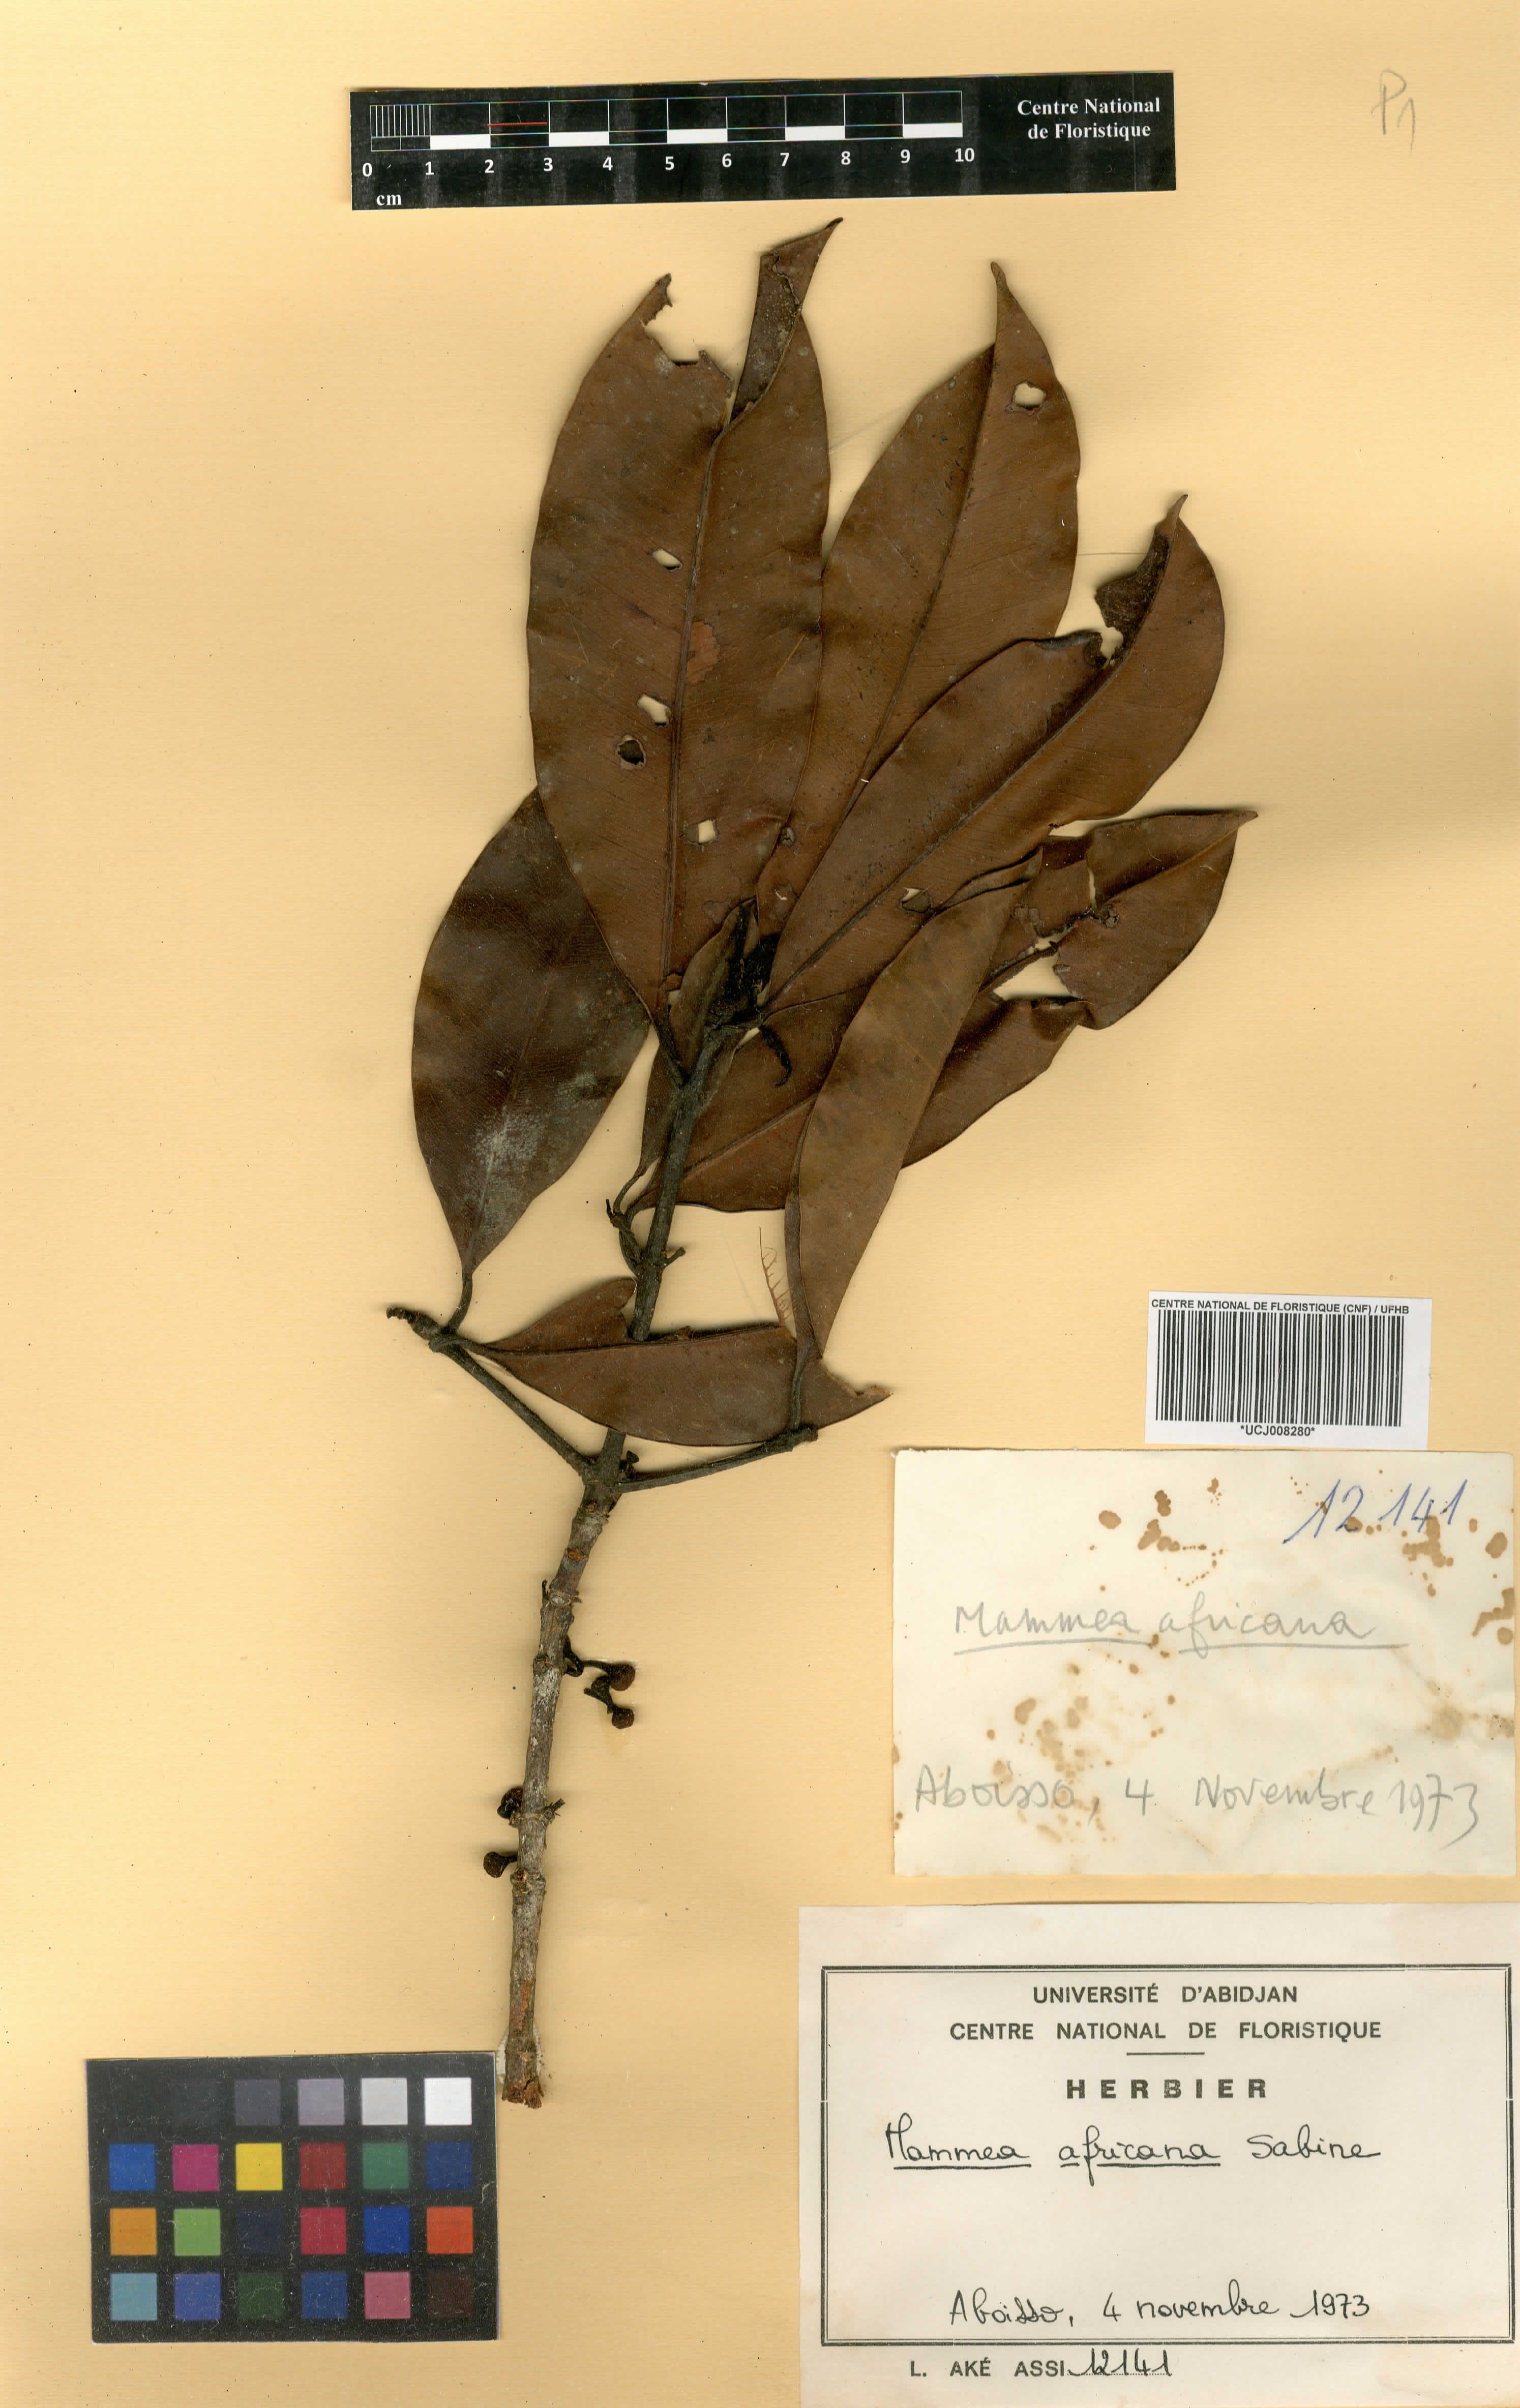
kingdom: Plantae
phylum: Tracheophyta
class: Magnoliopsida
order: Malpighiales
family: Calophyllaceae
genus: Mammea
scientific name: Mammea africana
